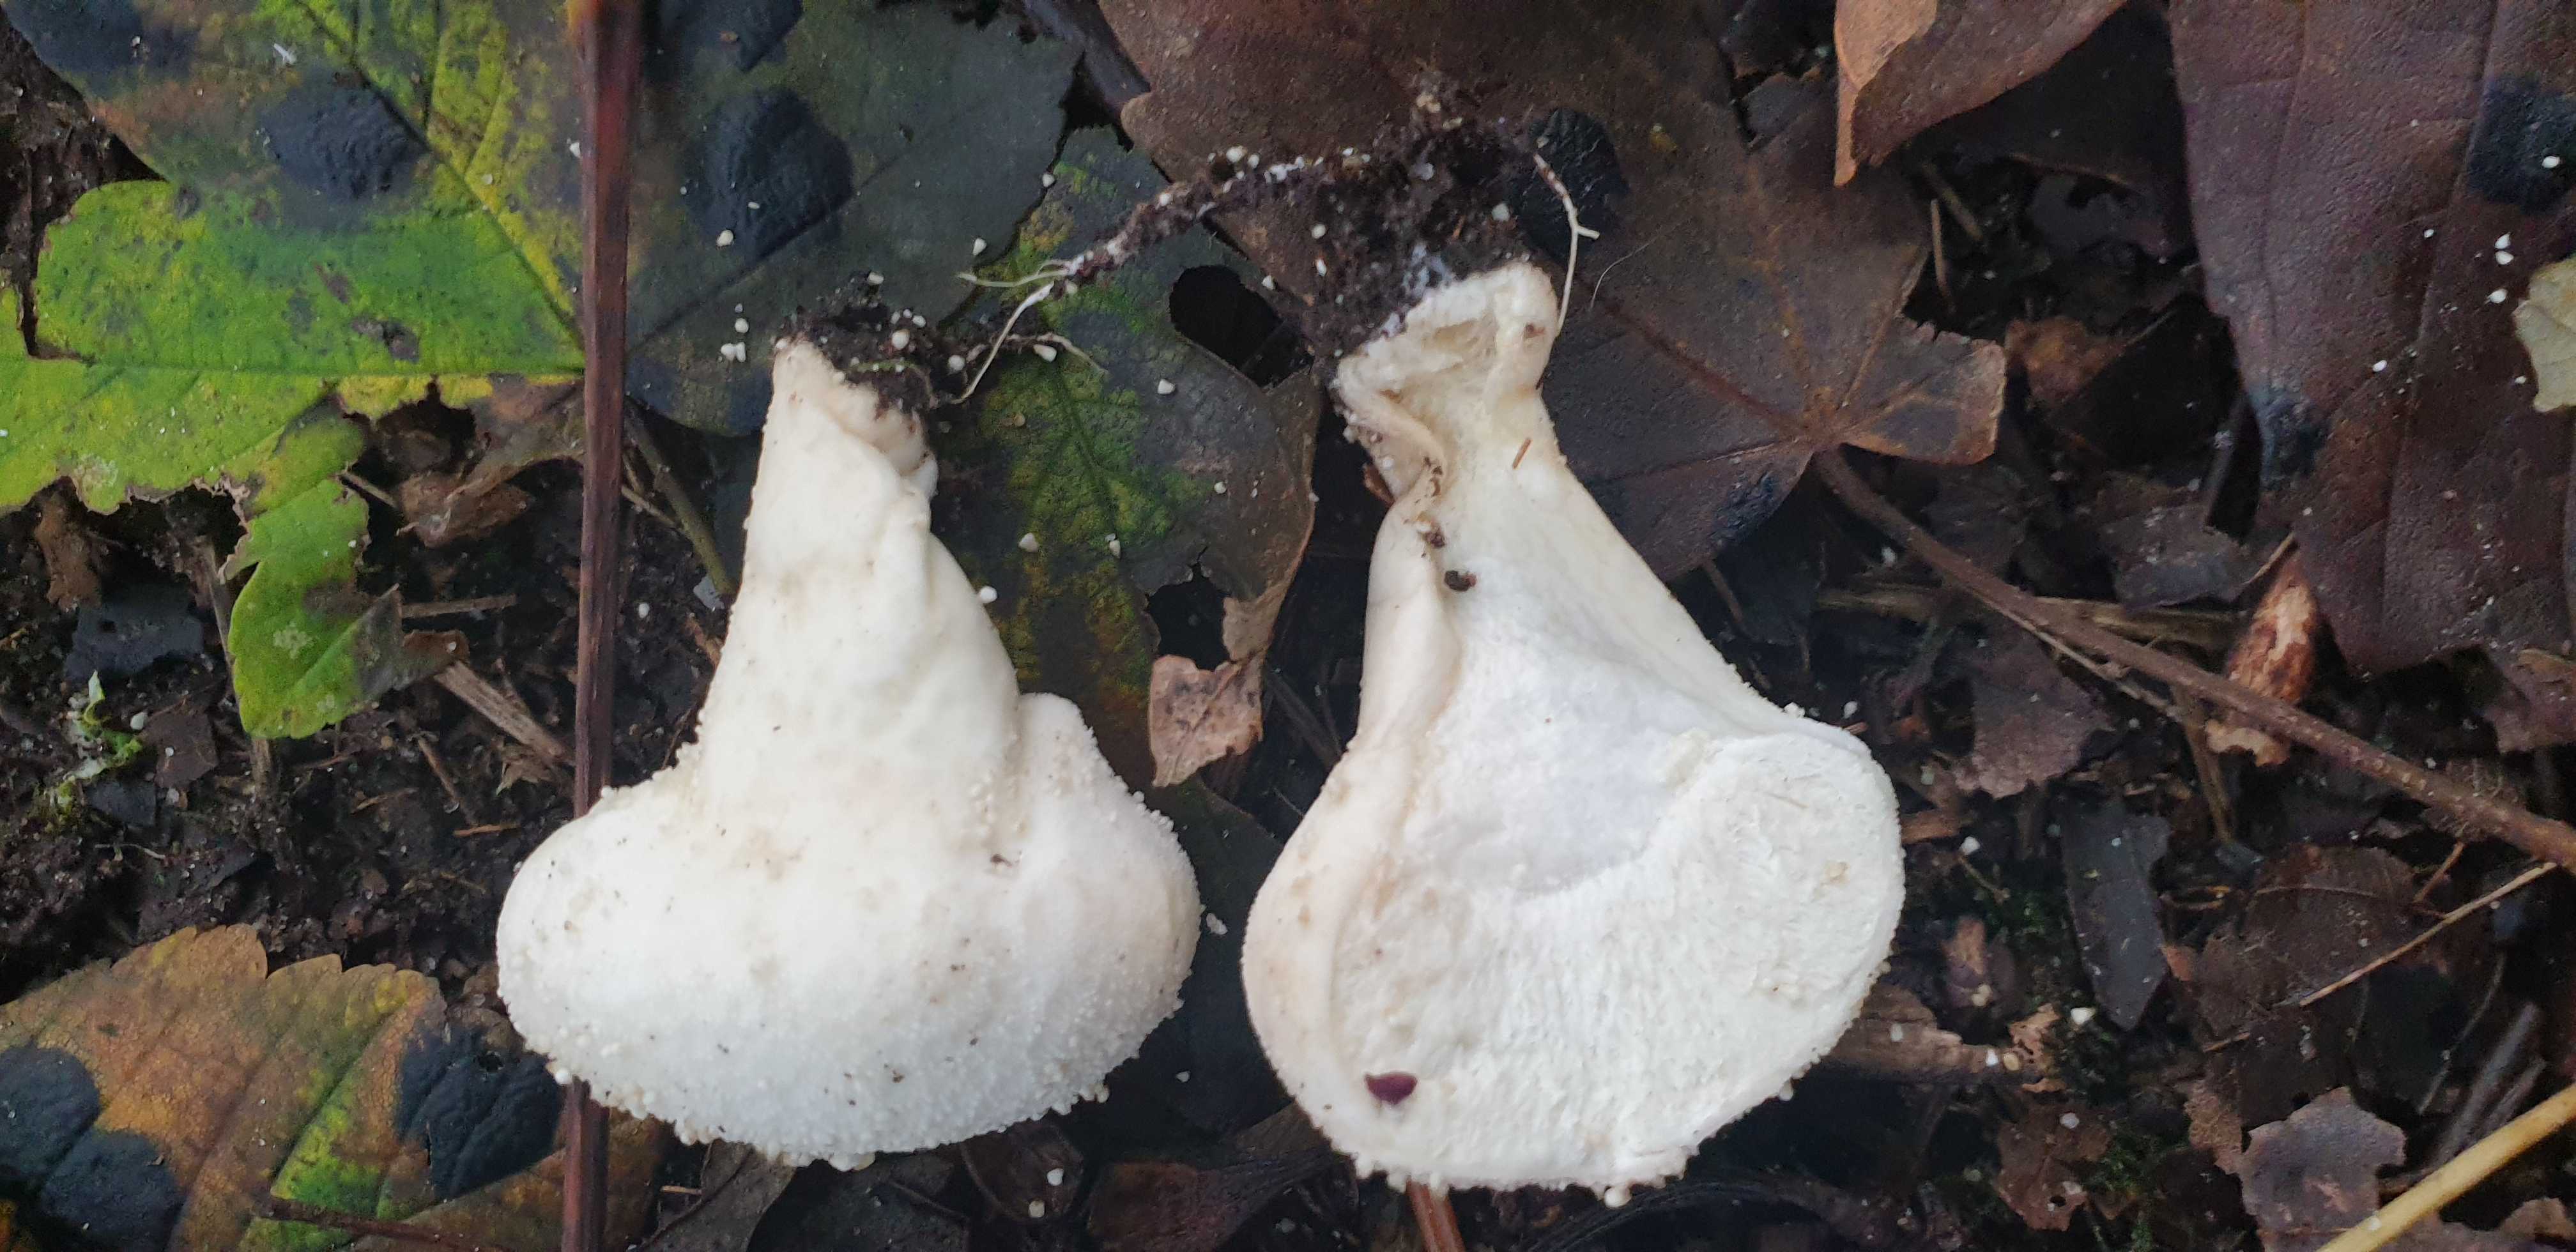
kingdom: Fungi
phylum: Basidiomycota
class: Agaricomycetes
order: Agaricales
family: Lycoperdaceae
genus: Lycoperdon
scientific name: Lycoperdon perlatum
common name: krystal-støvbold
